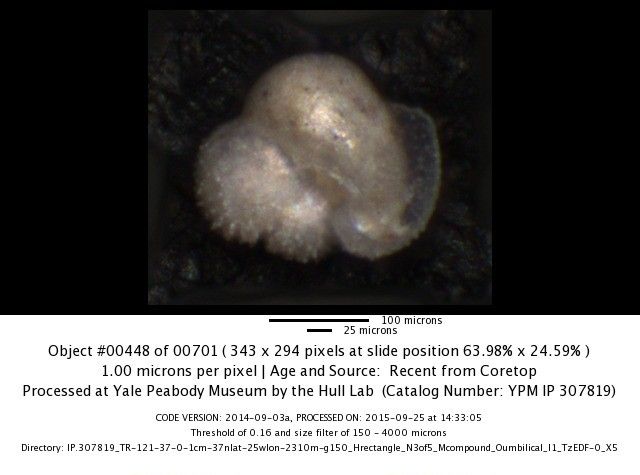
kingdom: Chromista
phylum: Foraminifera
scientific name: Foraminifera
